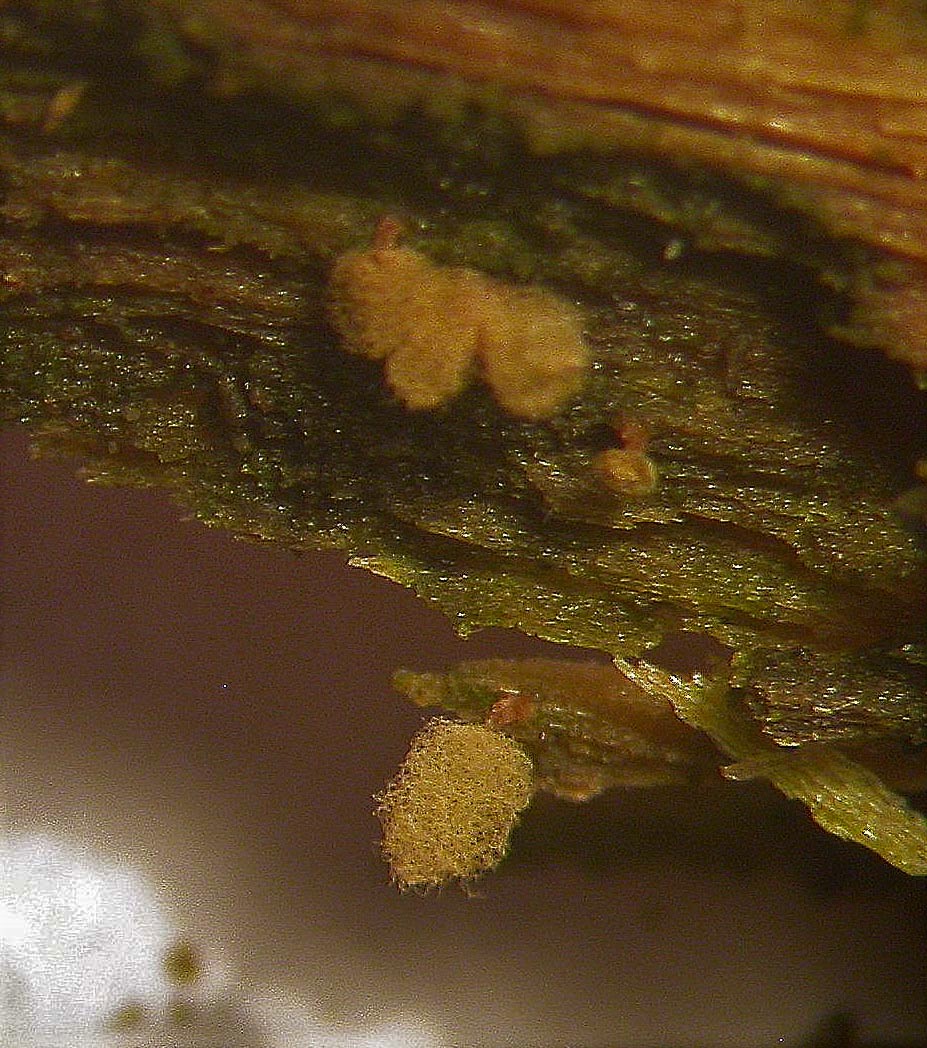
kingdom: Protozoa
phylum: Mycetozoa
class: Myxomycetes
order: Trichiales
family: Arcyriaceae
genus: Arcyria
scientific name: Arcyria pomiformis
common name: Golden apple slime mold
